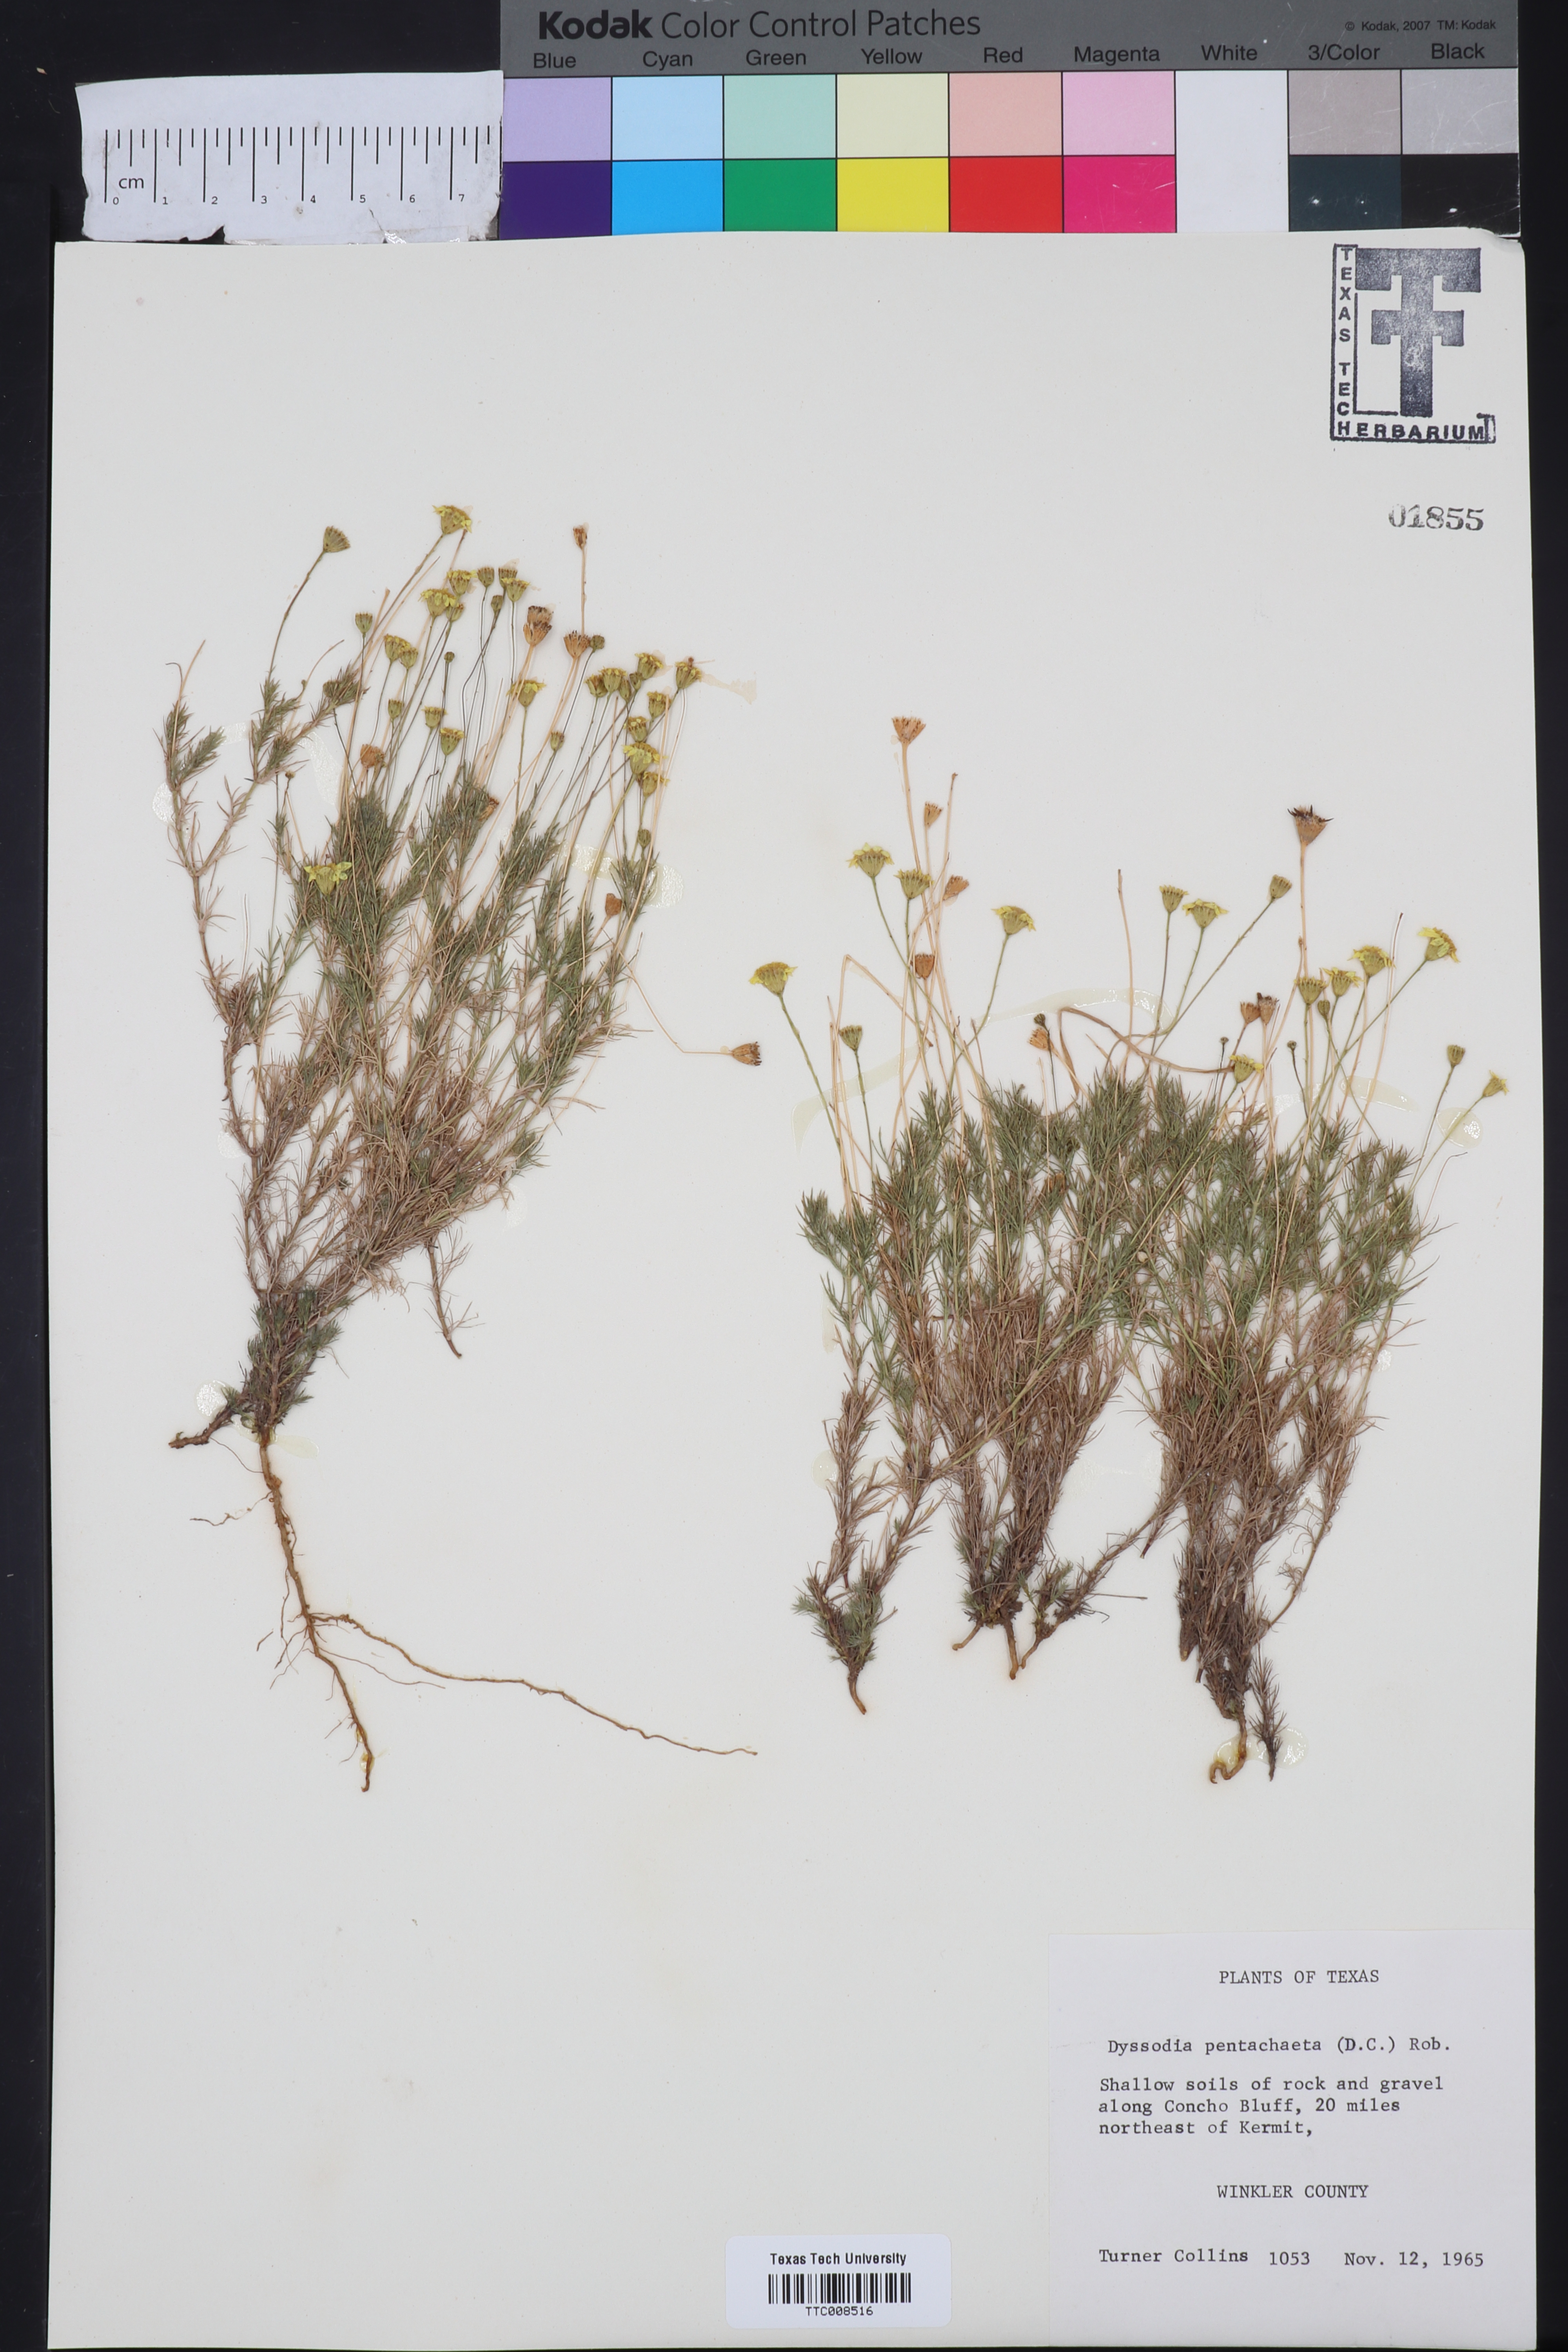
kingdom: Plantae
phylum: Tracheophyta
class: Magnoliopsida
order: Asterales
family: Asteraceae
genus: Thymophylla
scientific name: Thymophylla pentachaeta
